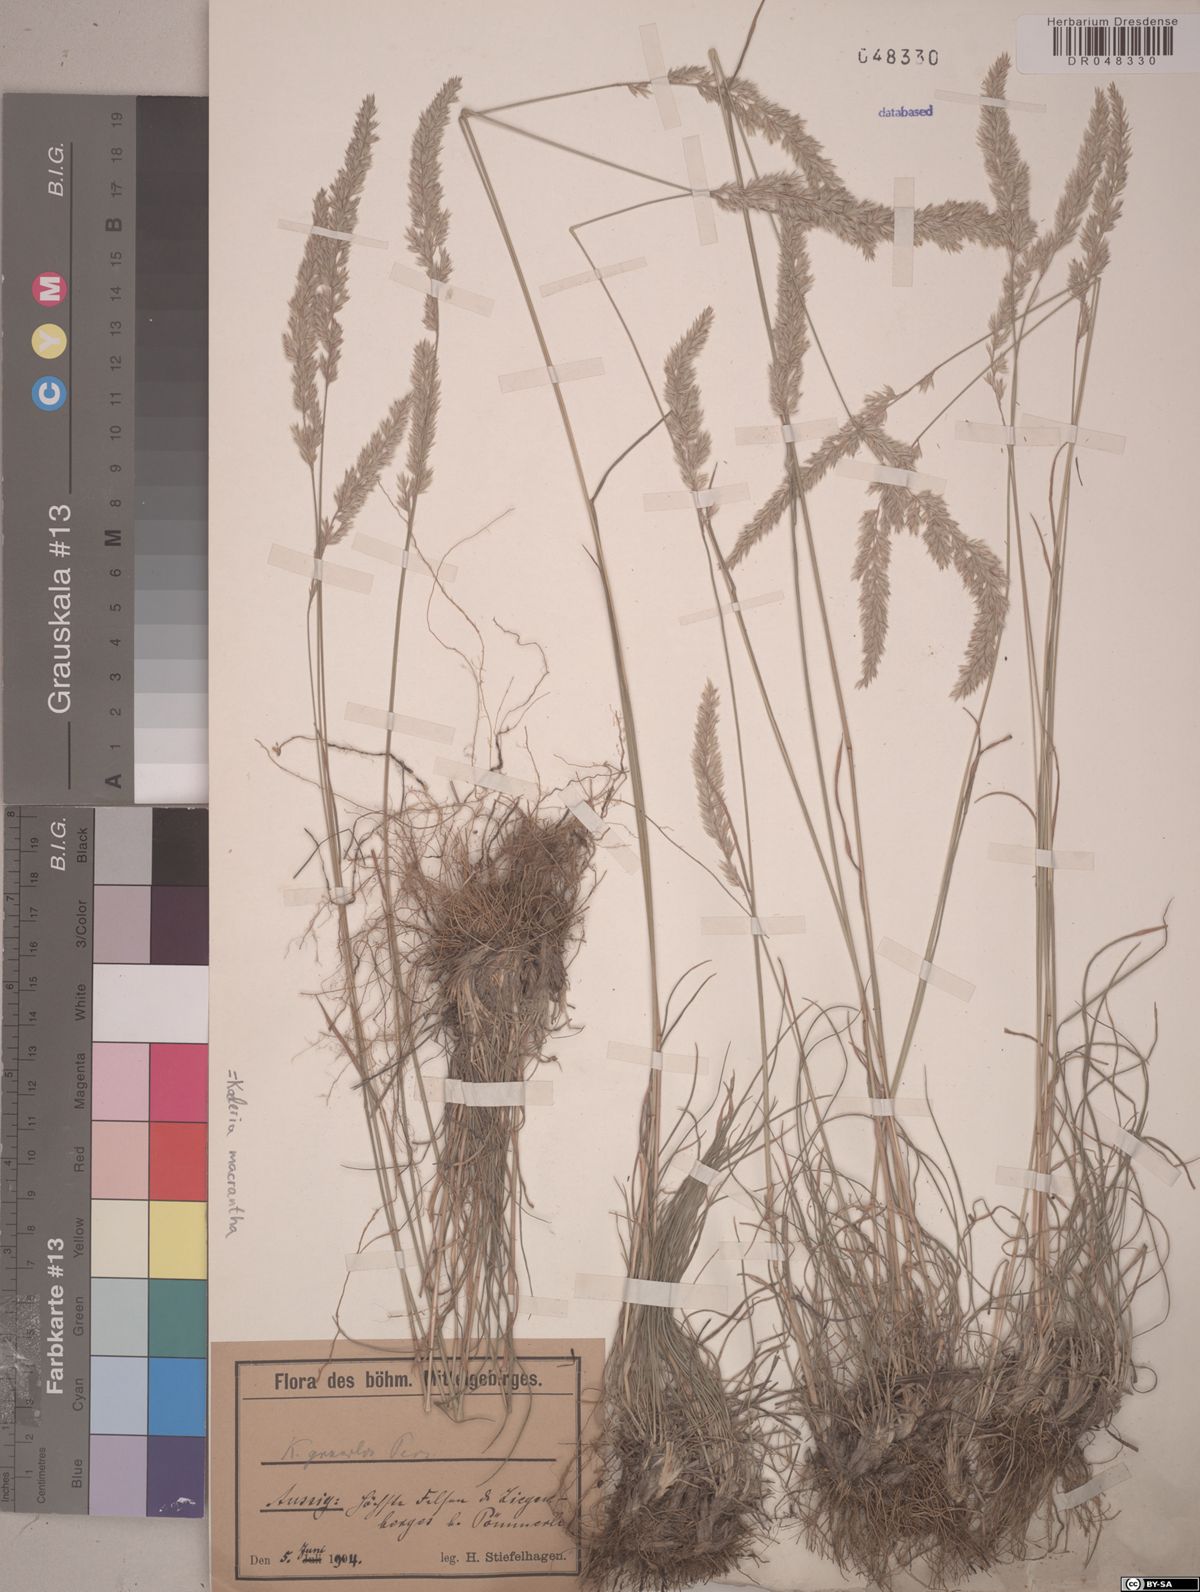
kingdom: Plantae
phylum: Tracheophyta
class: Liliopsida
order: Poales
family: Poaceae
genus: Koeleria
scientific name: Koeleria macrantha
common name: Crested hair-grass
